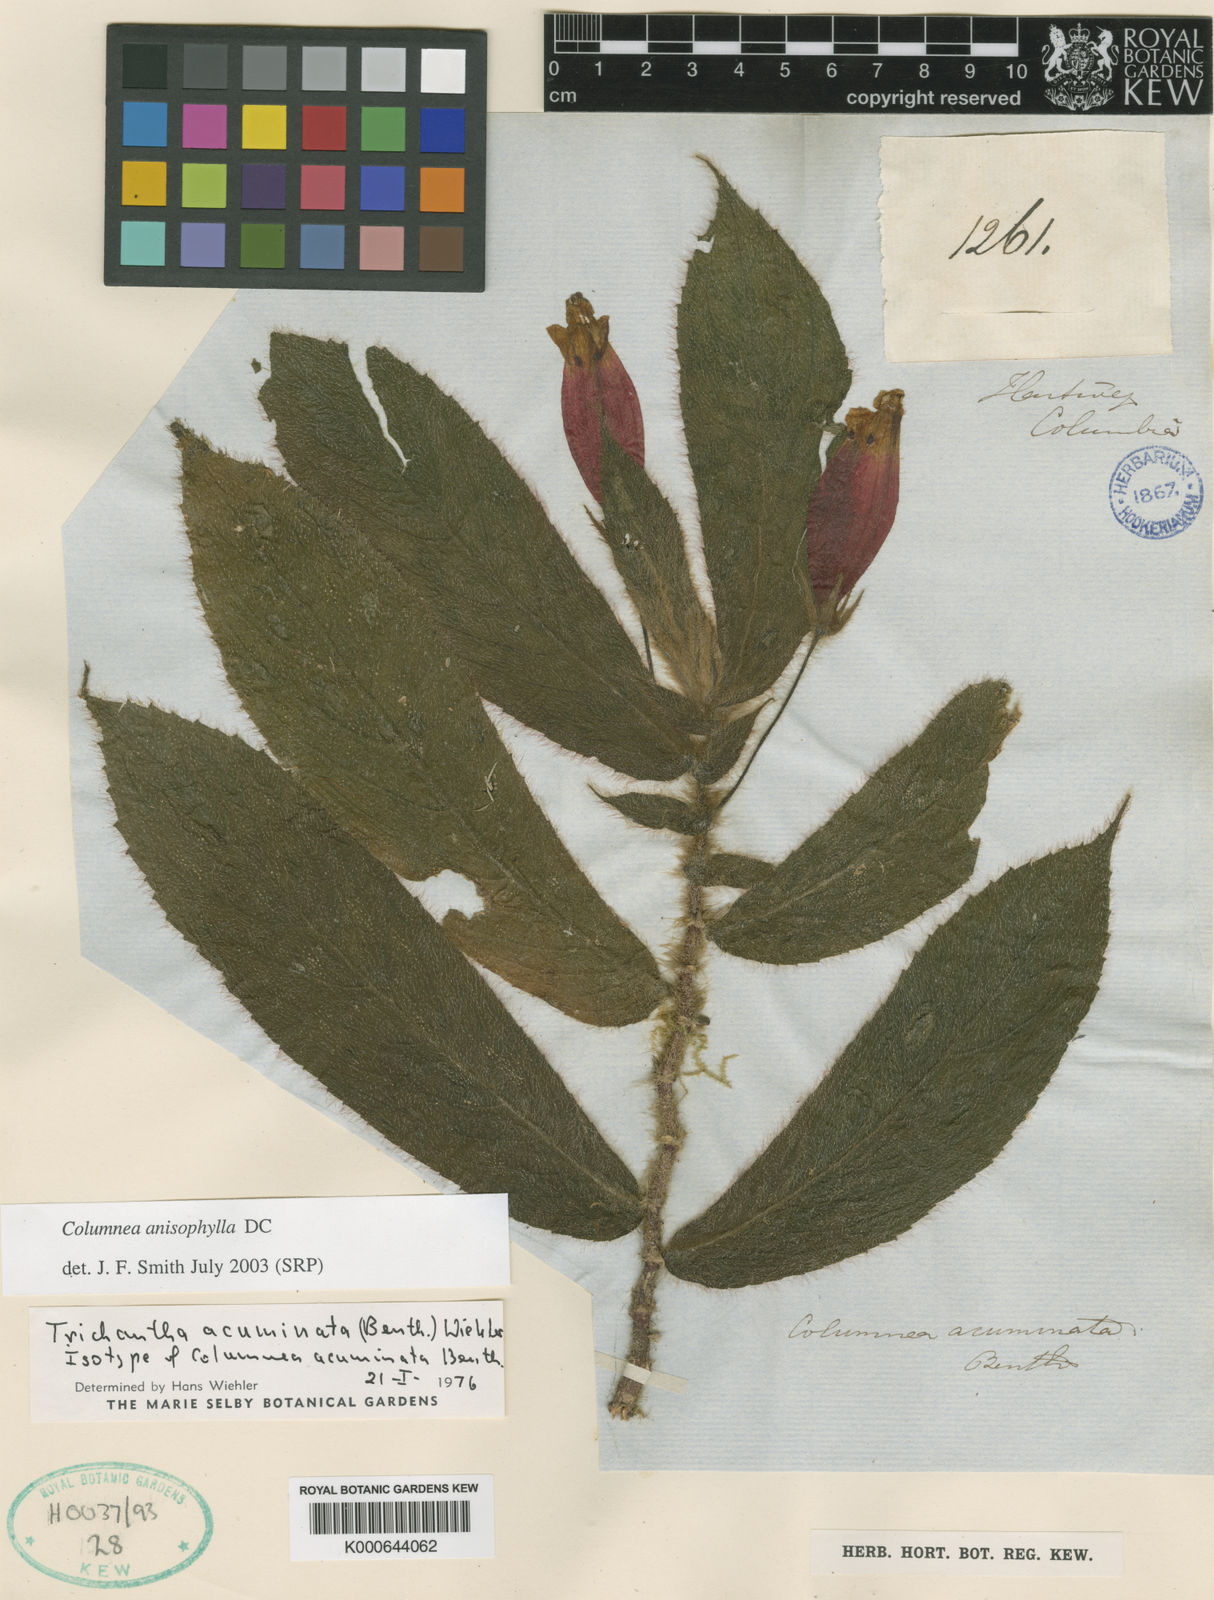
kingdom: Plantae
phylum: Tracheophyta
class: Magnoliopsida
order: Lamiales
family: Gesneriaceae
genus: Columnea
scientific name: Columnea anisophylla
